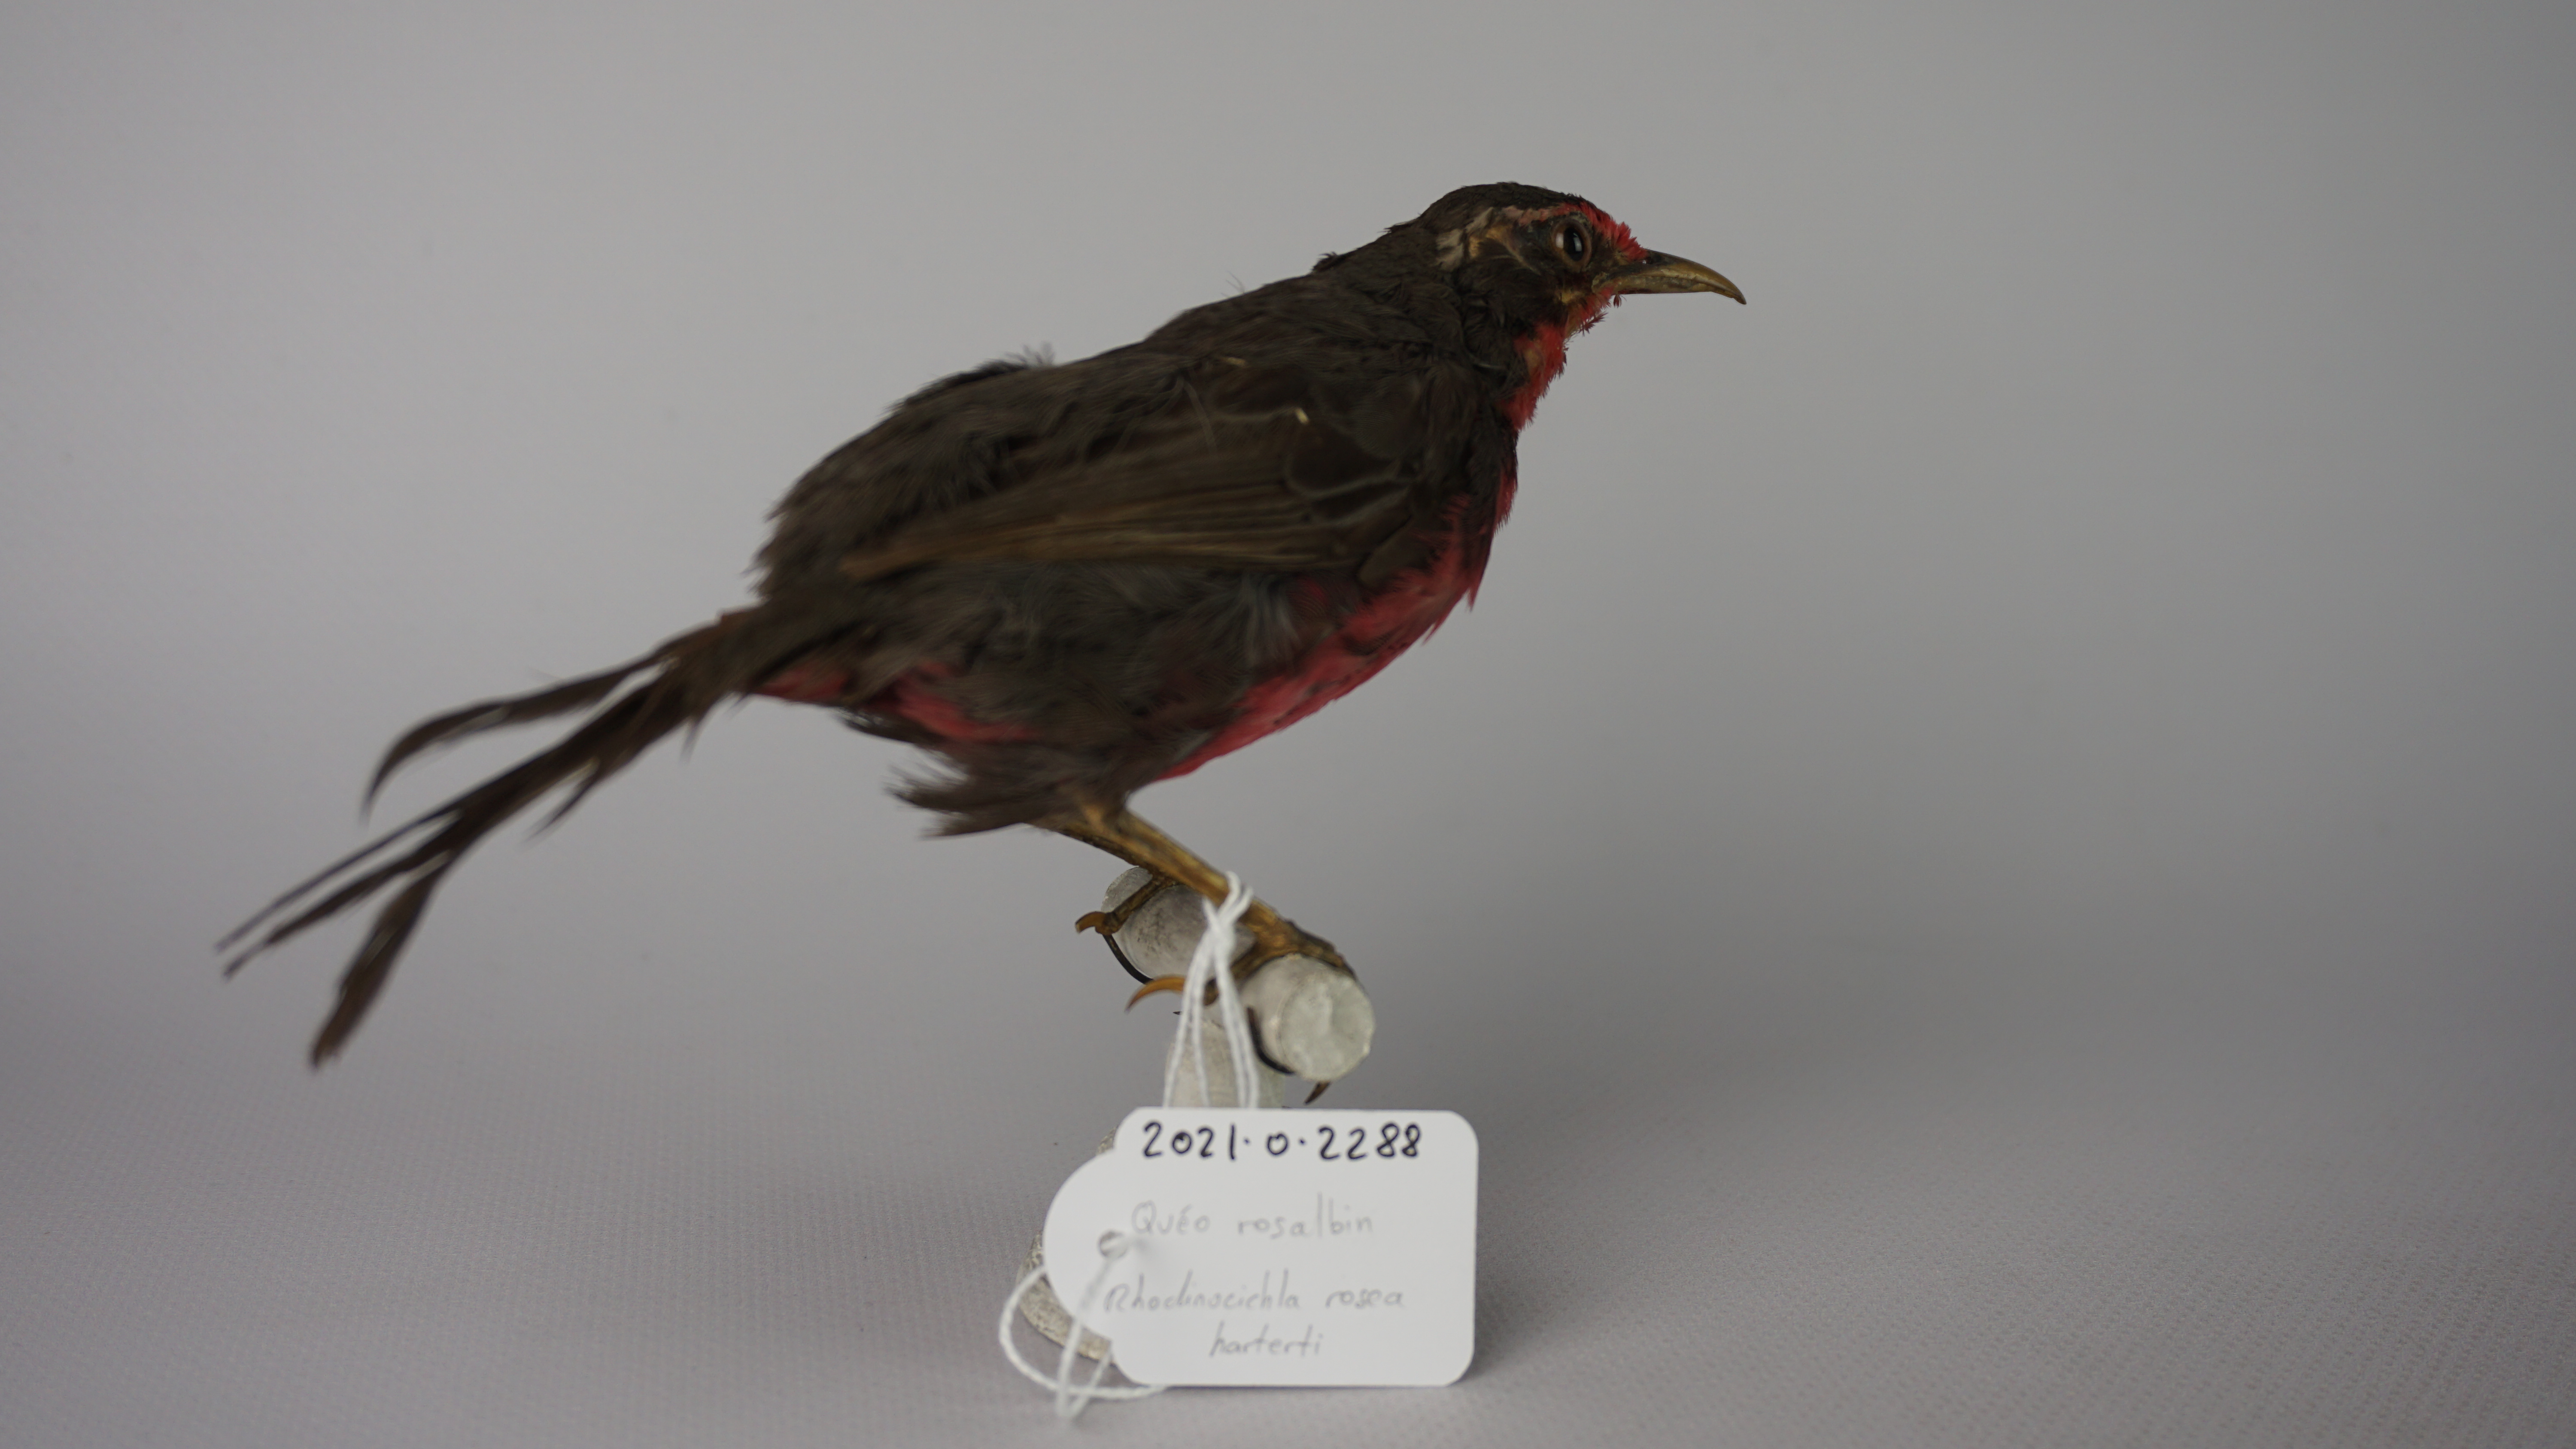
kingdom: Animalia
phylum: Chordata
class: Aves
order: Passeriformes
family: Rhodinocichlidae
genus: Rhodinocichla
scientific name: Rhodinocichla rosea
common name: Rosy thrush-tanager
